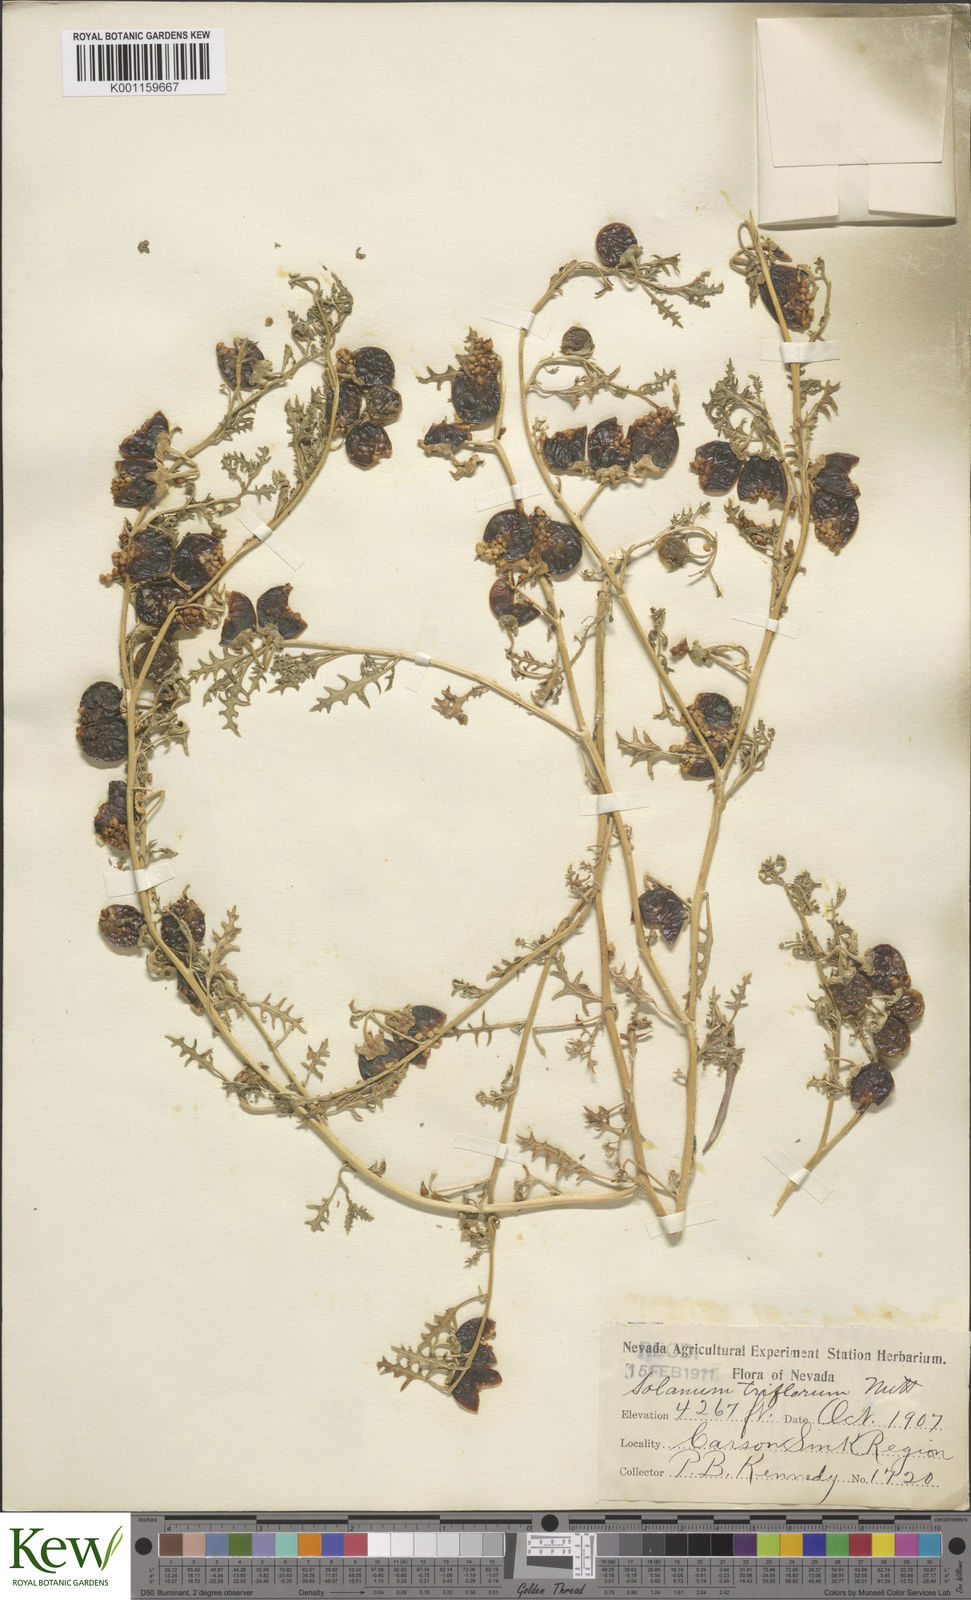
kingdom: Plantae
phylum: Tracheophyta
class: Magnoliopsida
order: Solanales
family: Solanaceae
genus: Solanum
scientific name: Solanum triflorum
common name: Small nightshade
